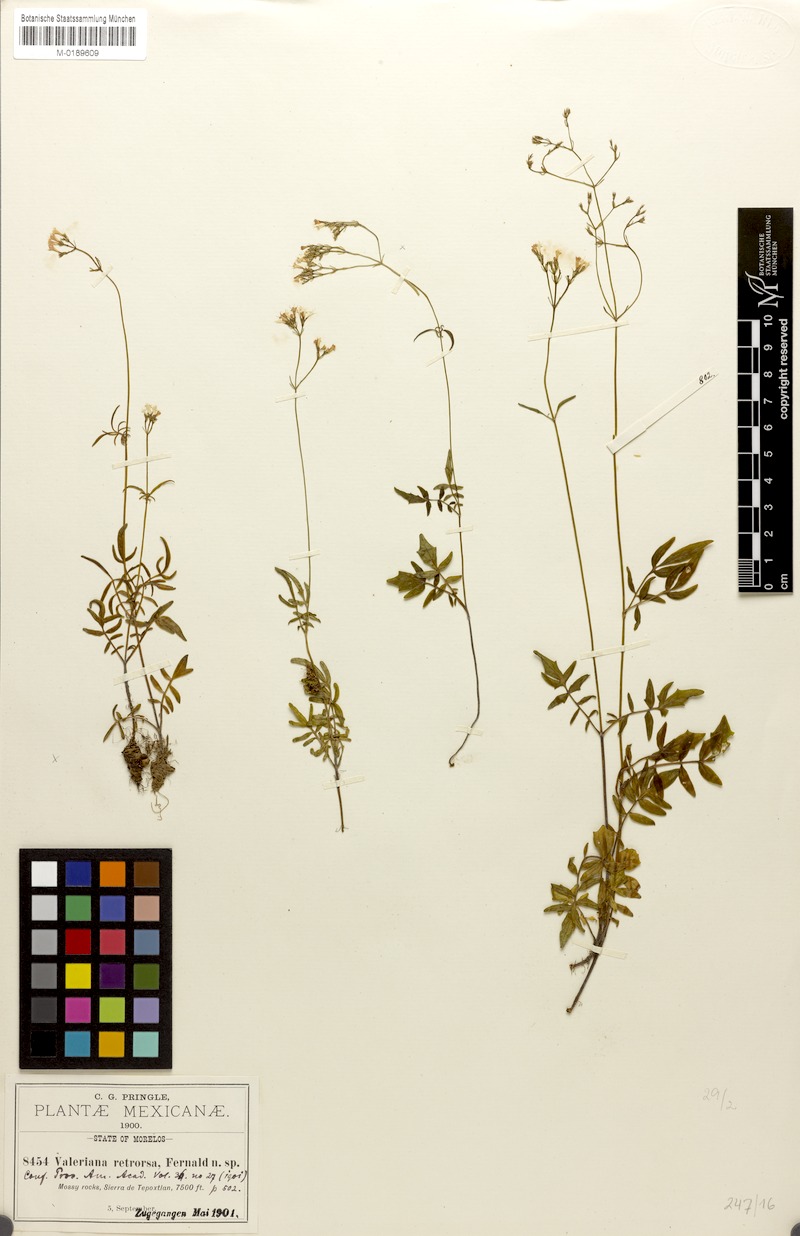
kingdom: Plantae
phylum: Tracheophyta
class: Magnoliopsida
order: Dipsacales
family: Caprifoliaceae
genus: Valeriana
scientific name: Valeriana densiflora
